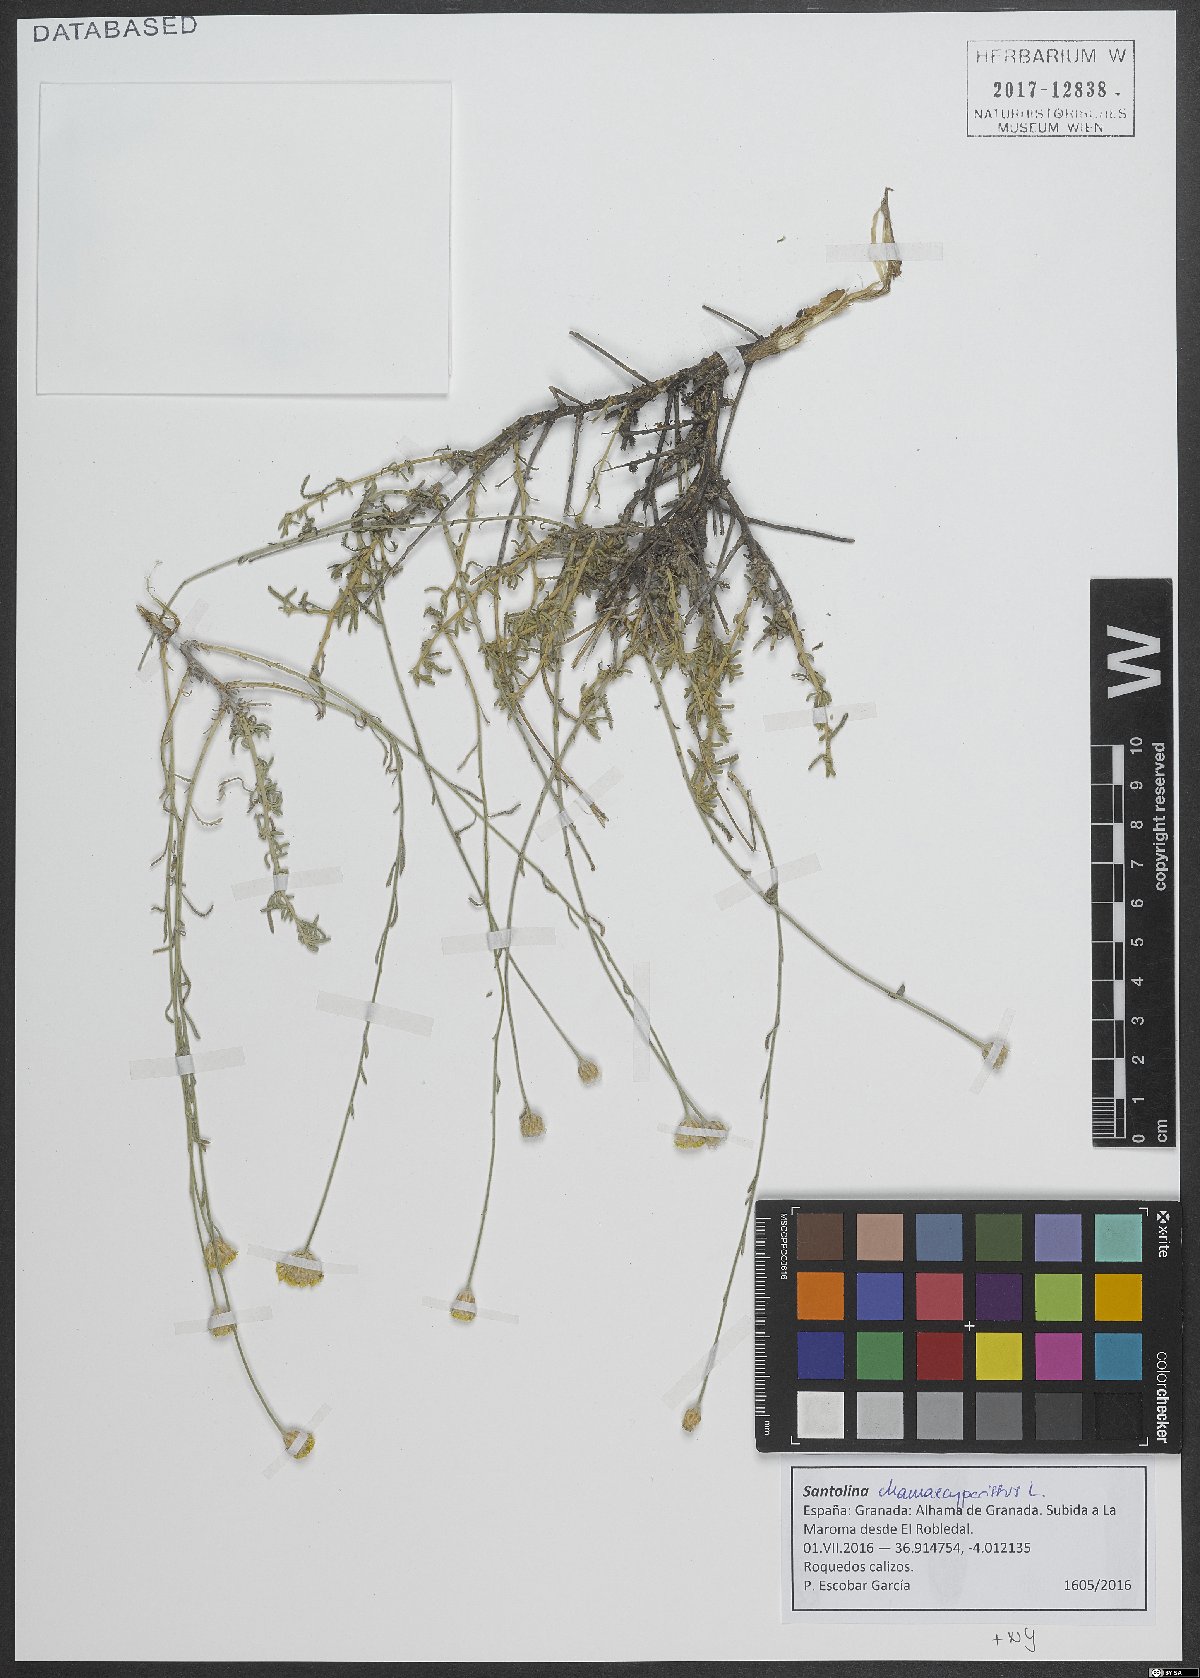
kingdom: Plantae
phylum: Tracheophyta
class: Magnoliopsida
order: Asterales
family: Asteraceae
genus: Santolina
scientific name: Santolina chamaecyparissus
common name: Lavender-cotton
